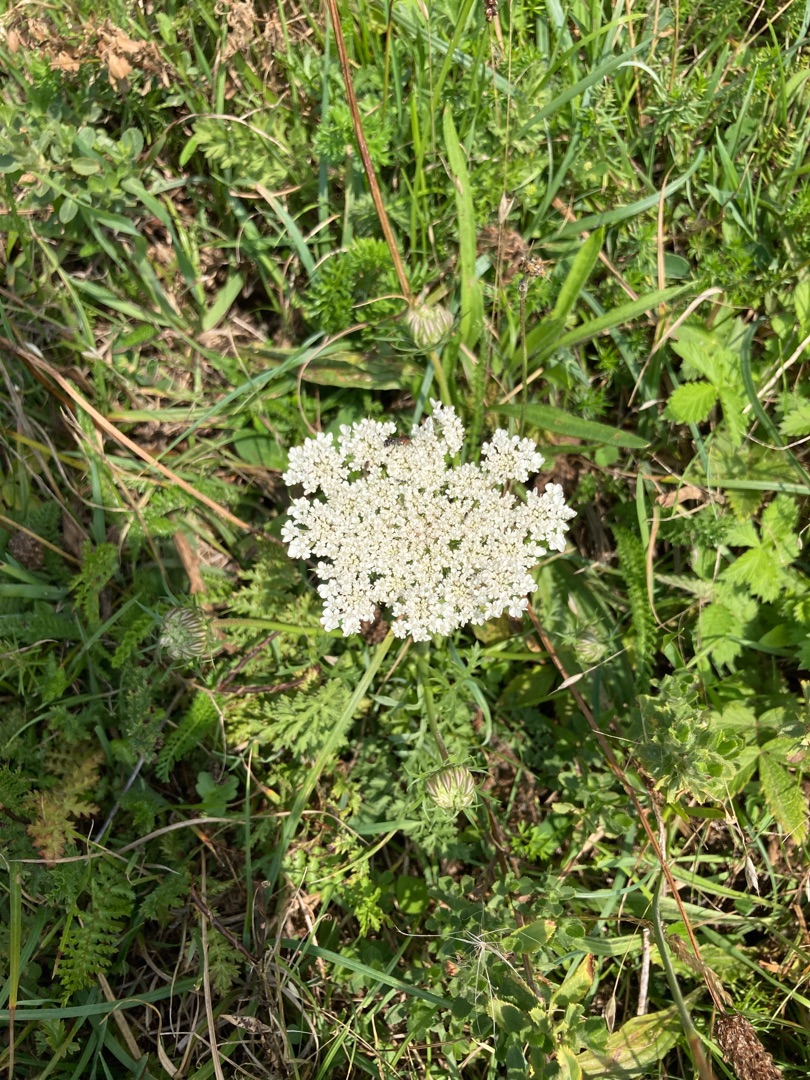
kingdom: Plantae
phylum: Tracheophyta
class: Magnoliopsida
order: Apiales
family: Apiaceae
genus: Daucus
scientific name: Daucus carota
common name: Gulerod
